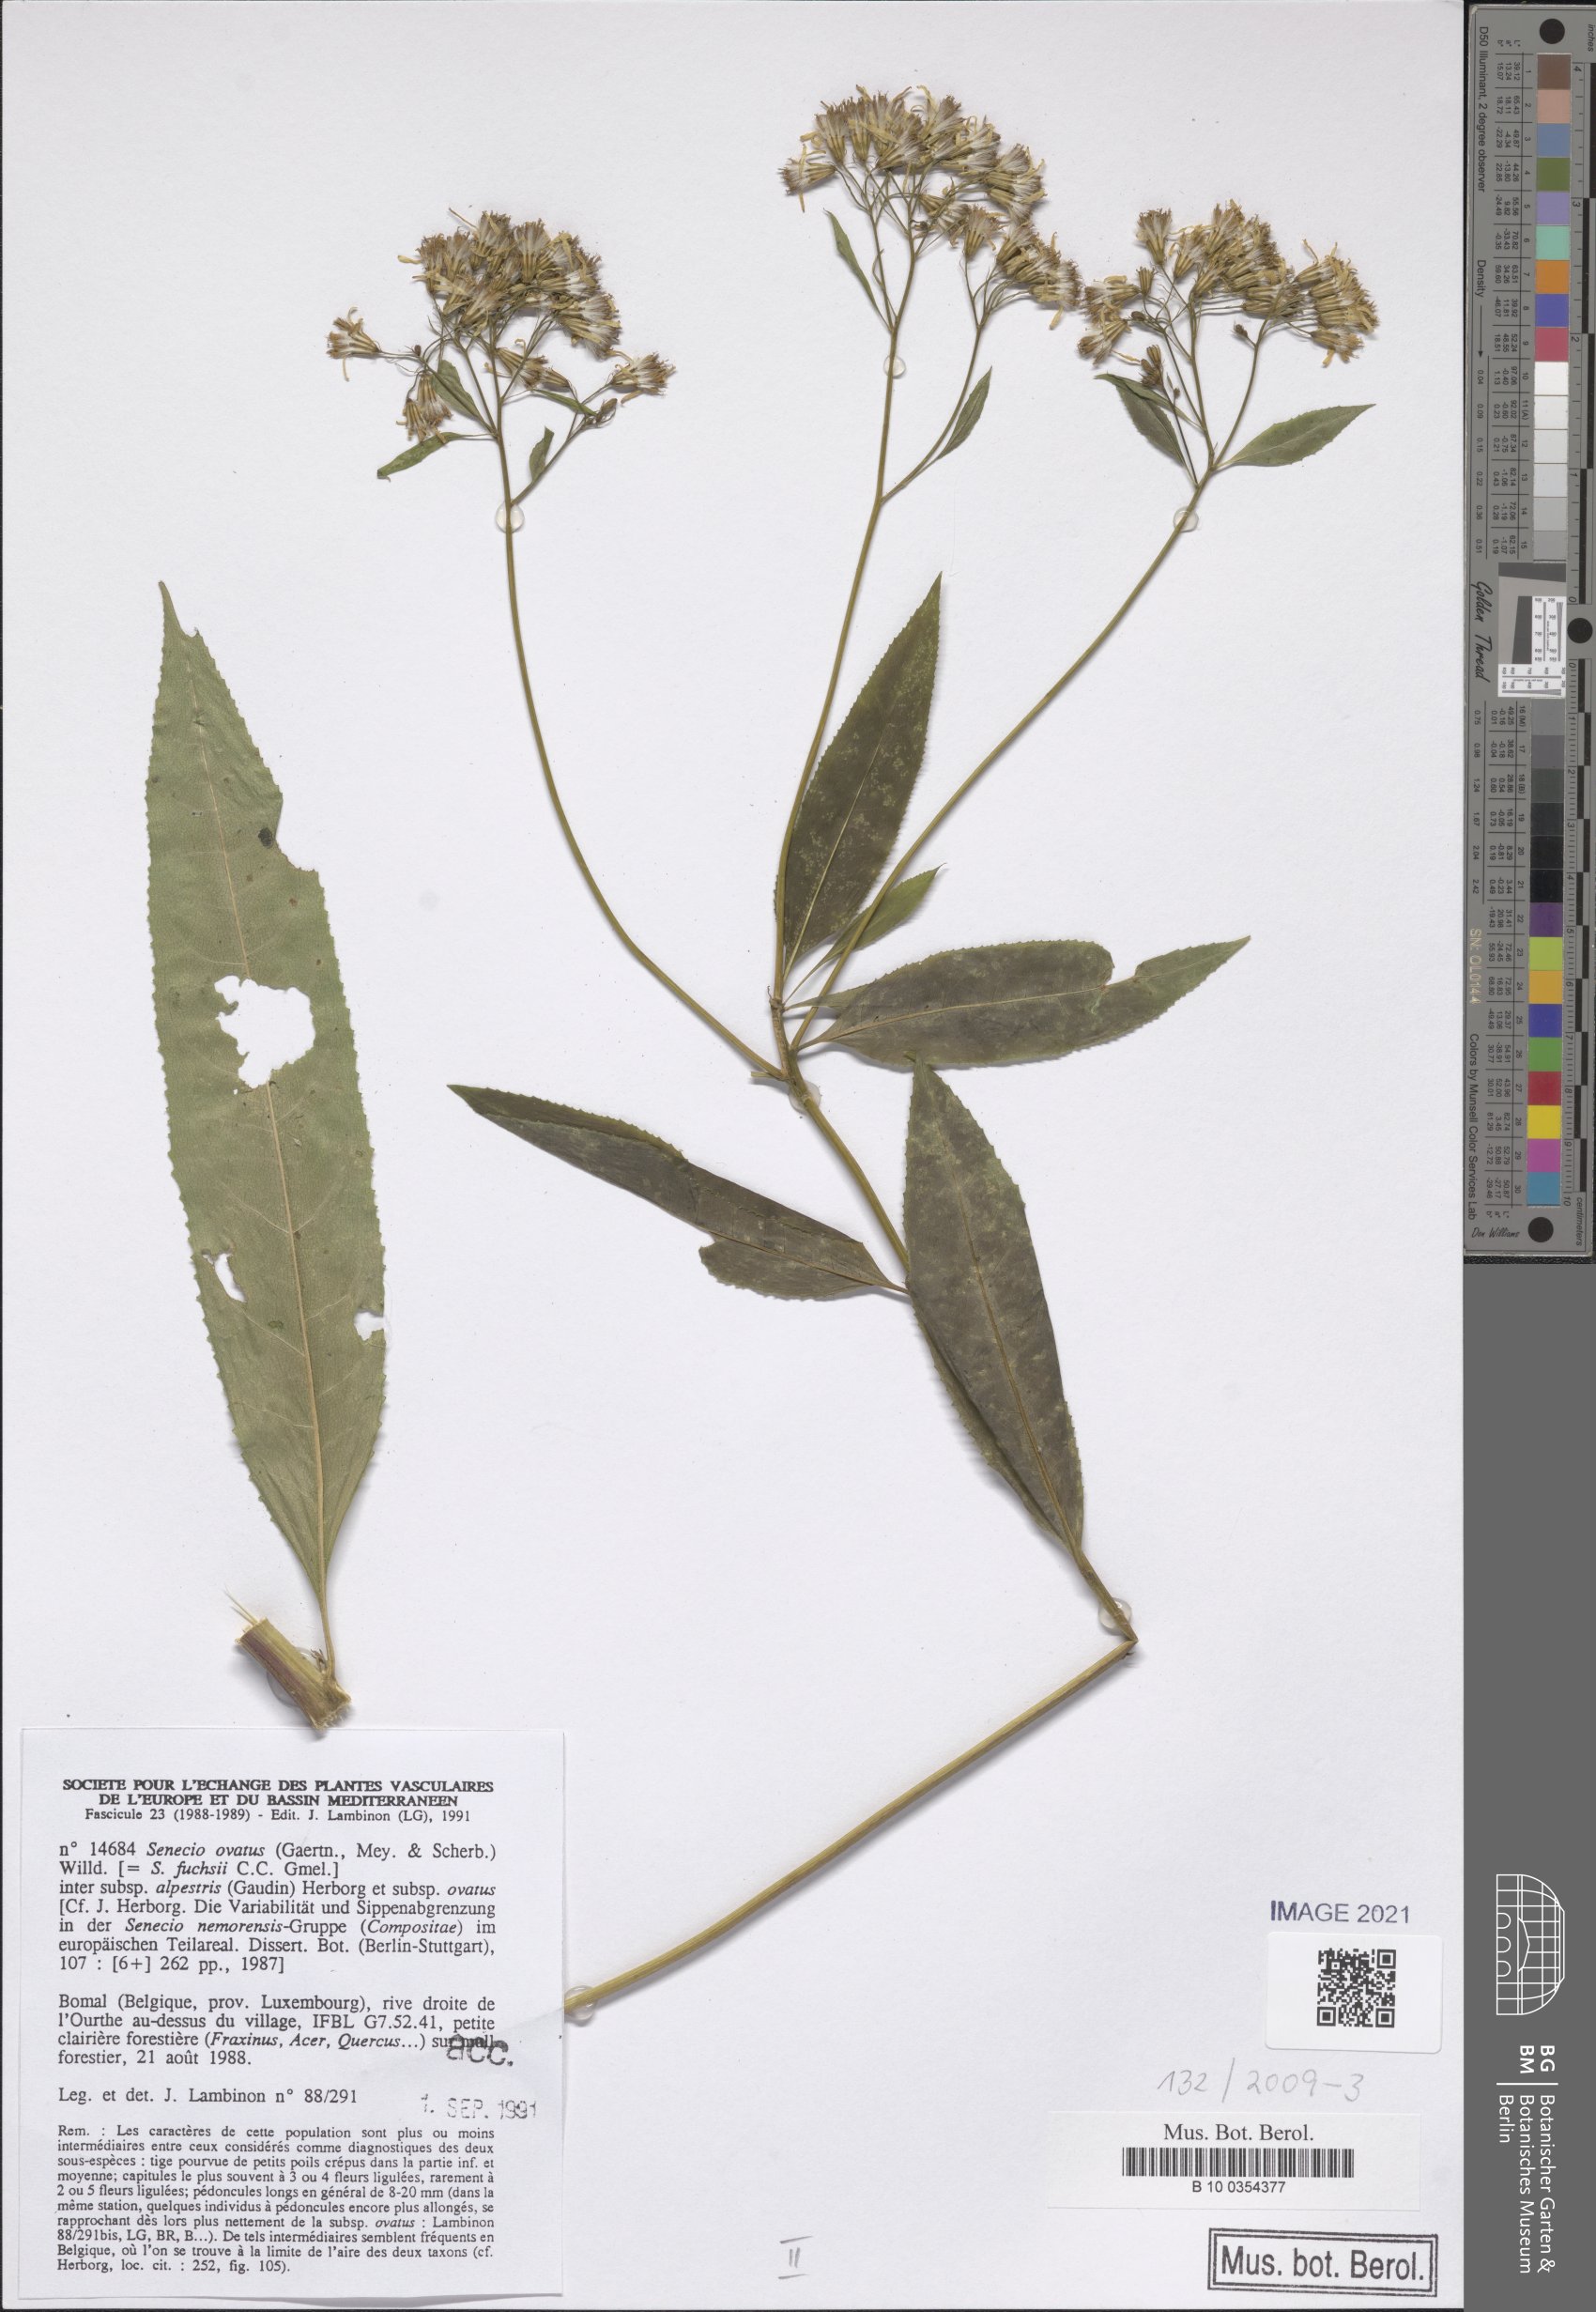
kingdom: Plantae
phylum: Tracheophyta
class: Magnoliopsida
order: Asterales
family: Asteraceae
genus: Senecio
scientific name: Senecio ovatus
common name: Wood ragwort
